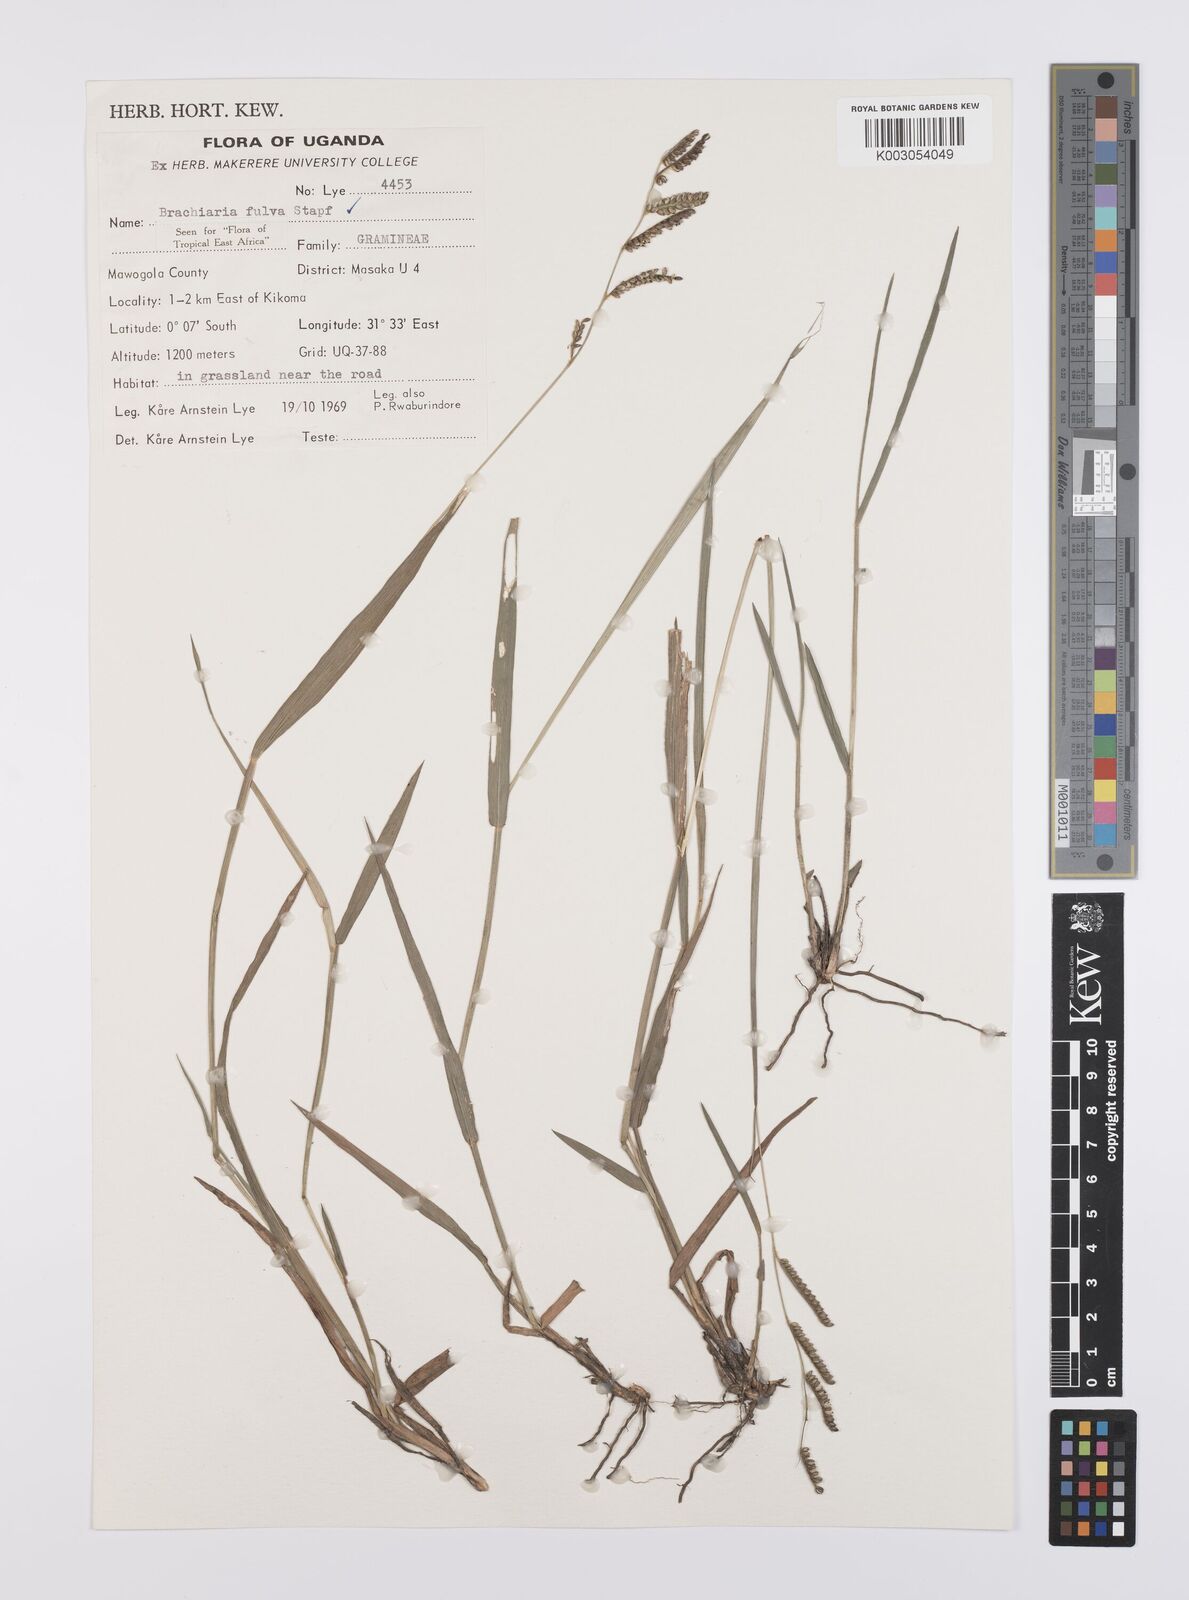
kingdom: Plantae
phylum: Tracheophyta
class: Liliopsida
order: Poales
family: Poaceae
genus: Urochloa
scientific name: Urochloa jubata
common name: Buffalograss
